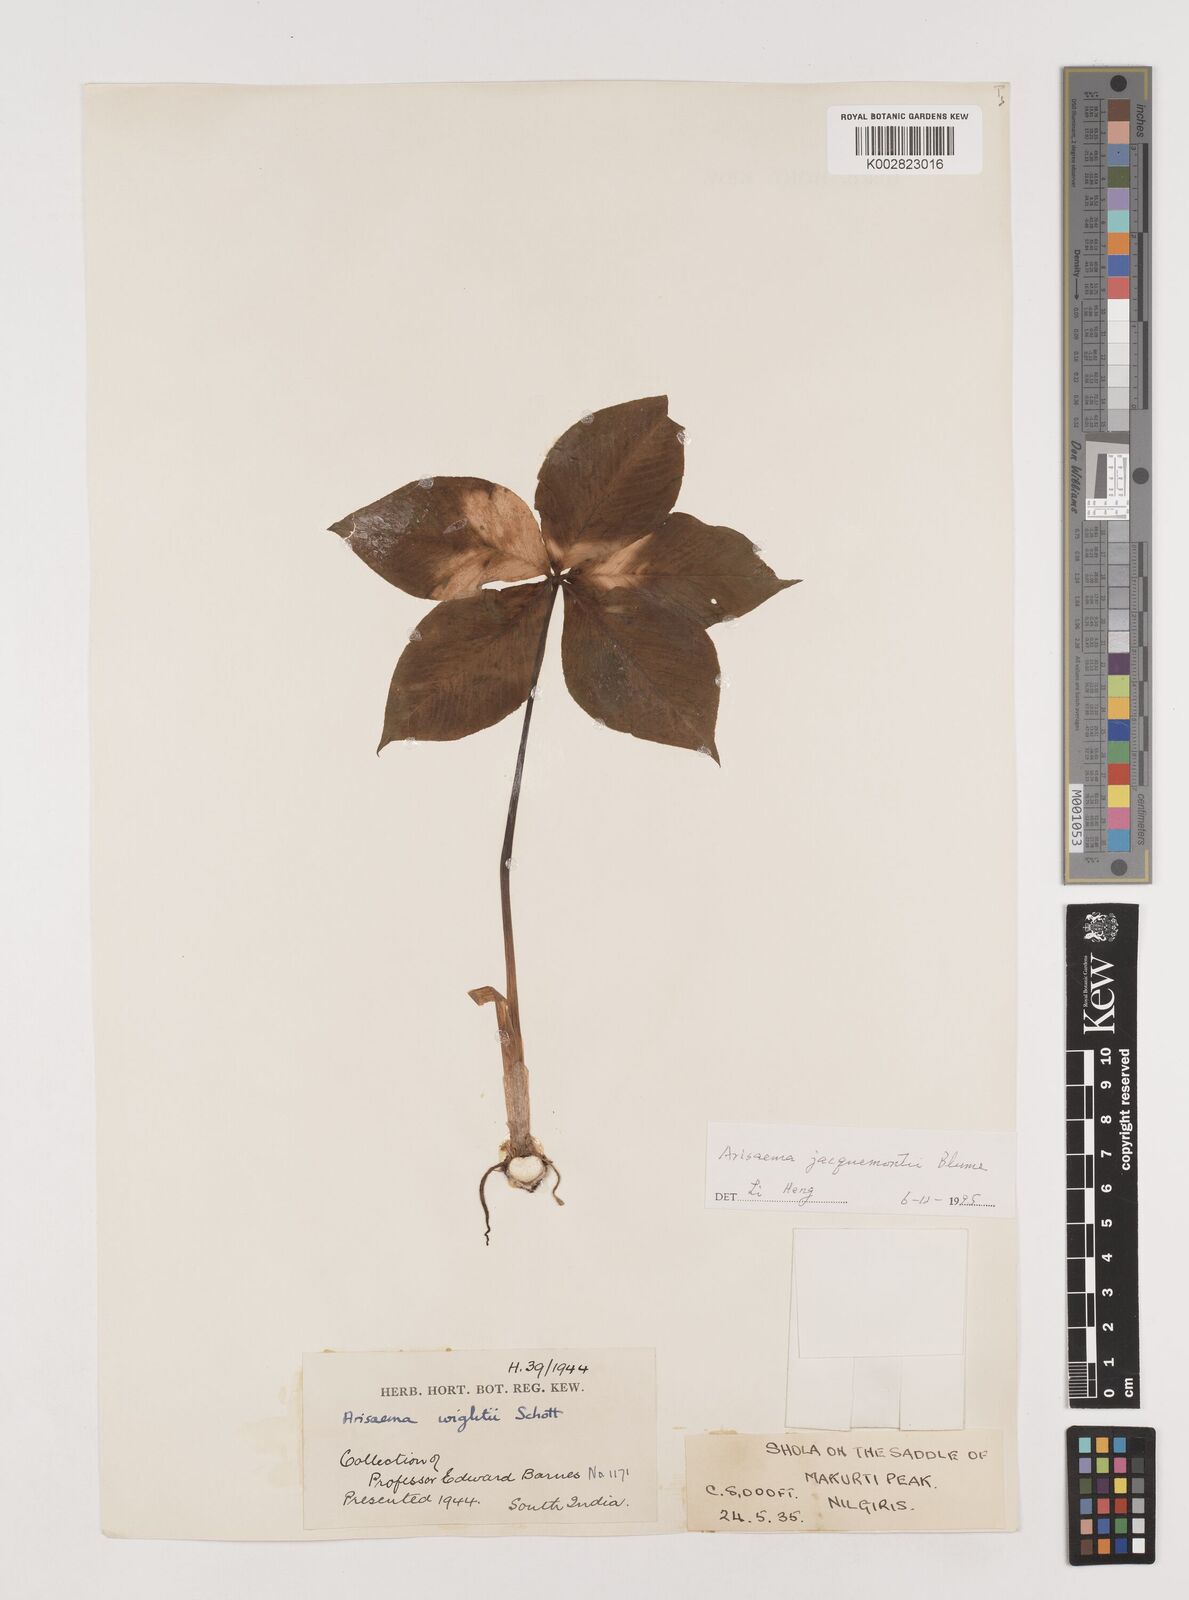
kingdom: Plantae
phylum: Tracheophyta
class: Liliopsida
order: Alismatales
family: Araceae
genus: Arisaema
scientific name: Arisaema jacquemontii
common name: Jacquemont's cobra-lily
